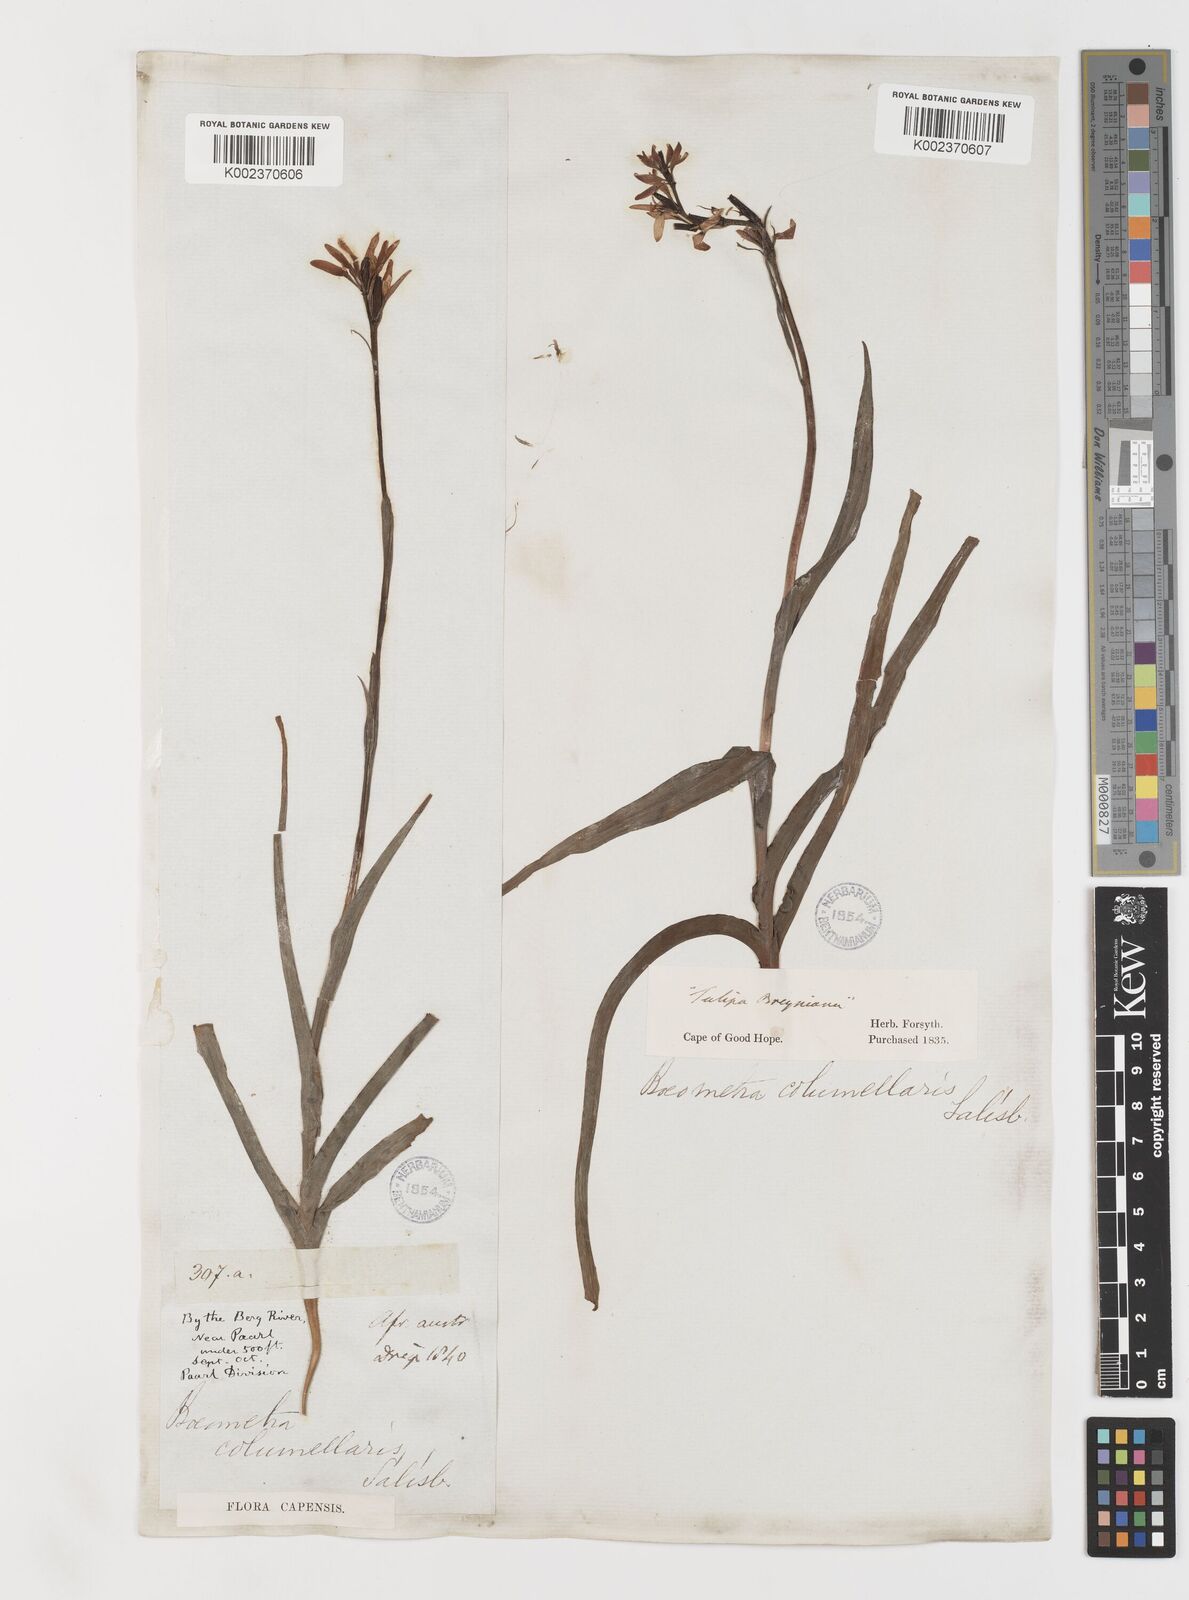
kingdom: Plantae
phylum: Tracheophyta
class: Liliopsida
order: Liliales
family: Colchicaceae
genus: Baeometra
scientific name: Baeometra uniflora
